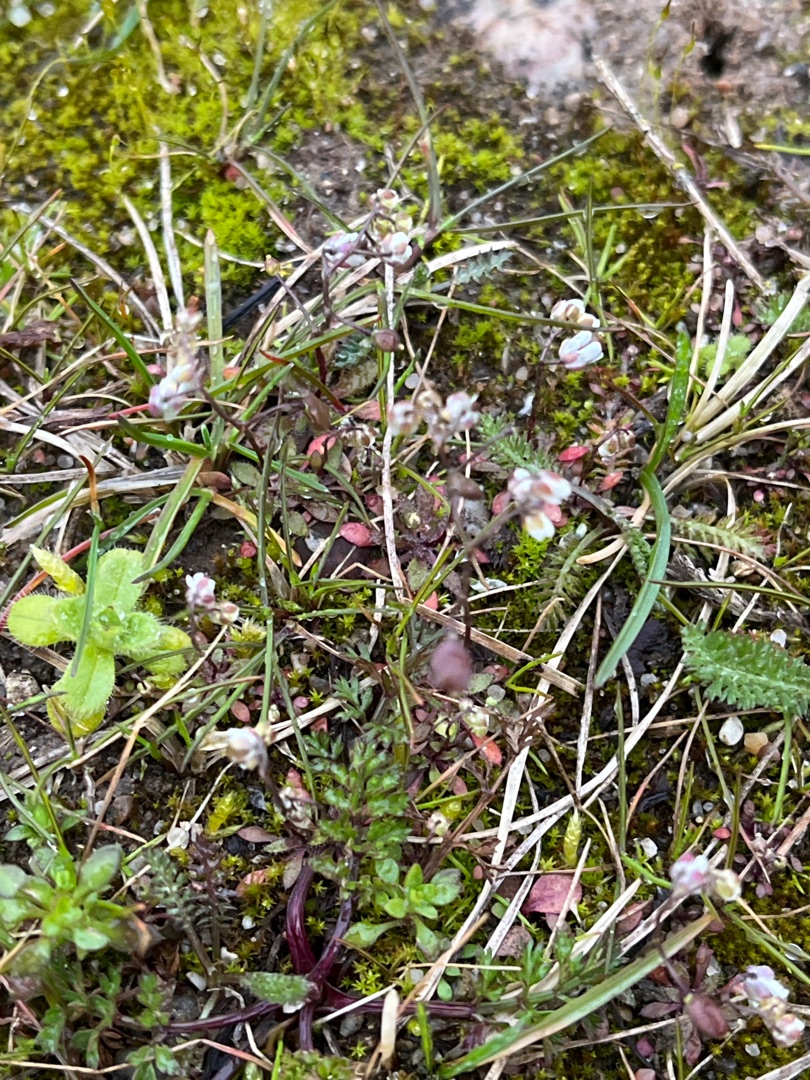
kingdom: Plantae
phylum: Tracheophyta
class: Magnoliopsida
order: Brassicales
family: Brassicaceae
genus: Draba
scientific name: Draba verna
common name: Vår-gæslingeblomst
